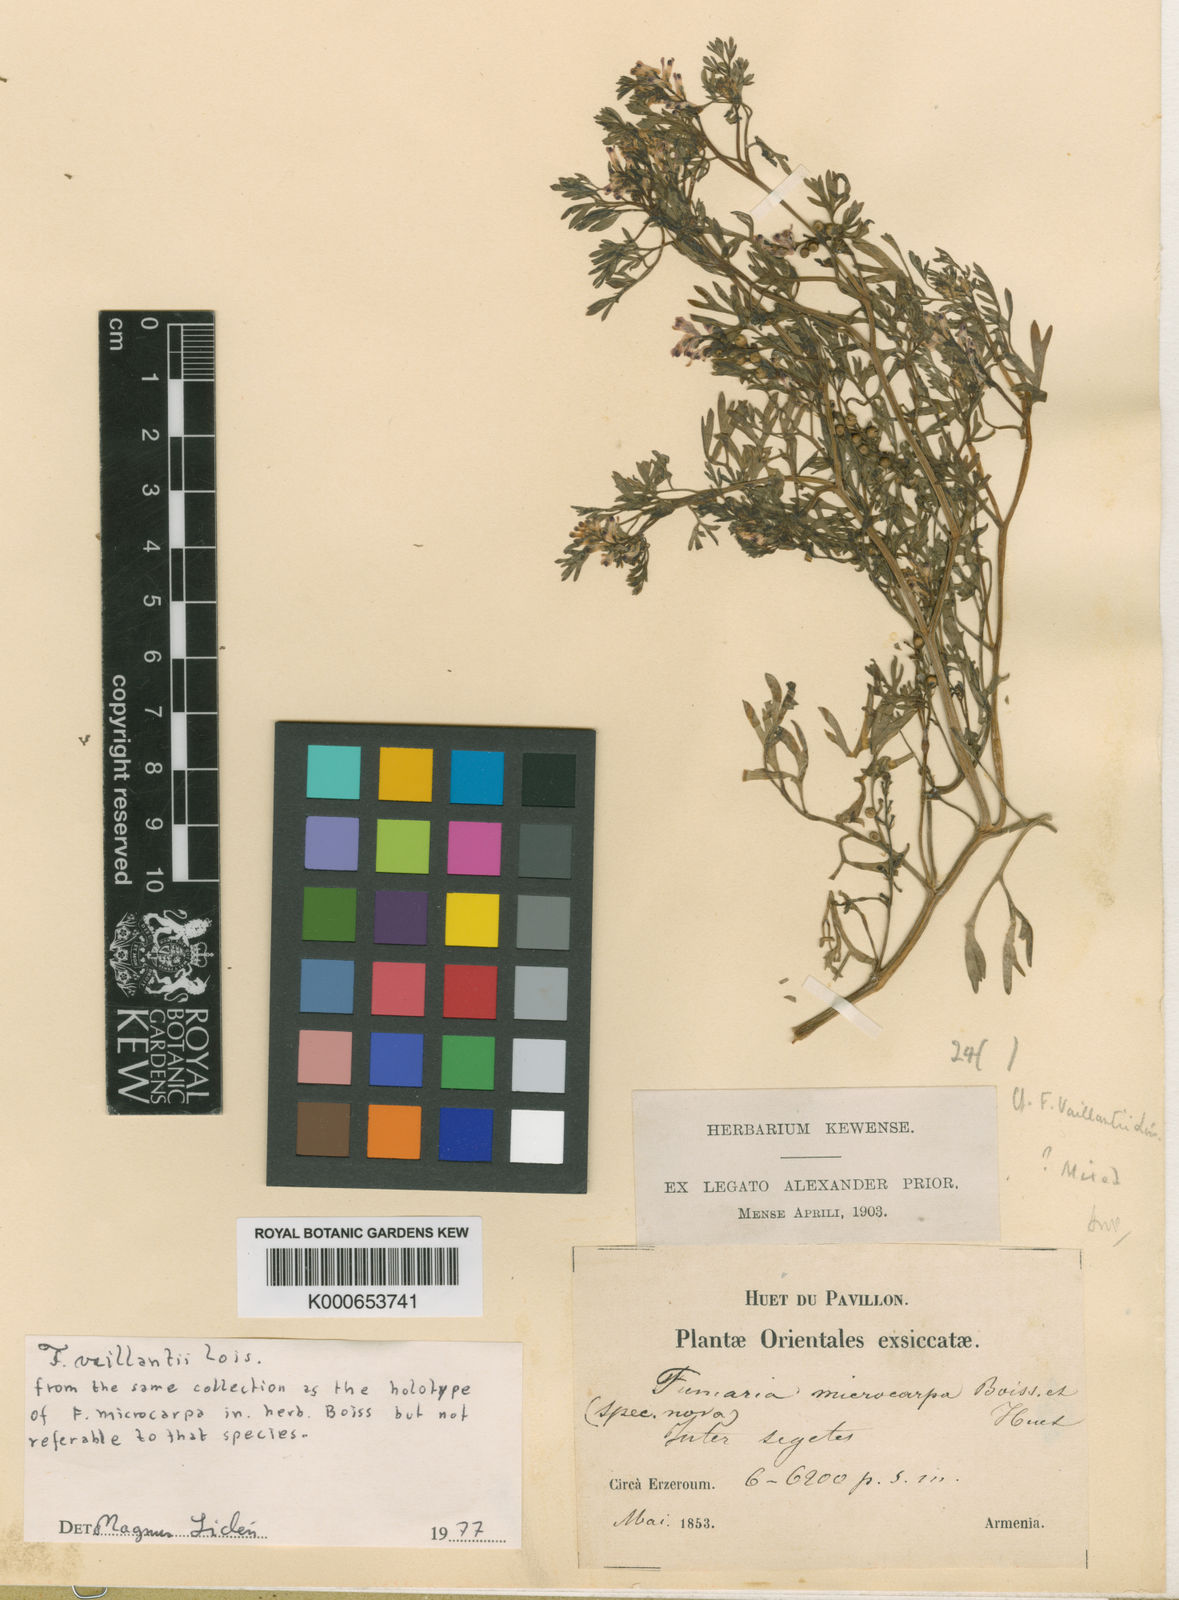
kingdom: Plantae
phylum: Tracheophyta
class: Magnoliopsida
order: Ranunculales
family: Papaveraceae
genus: Fumaria
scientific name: Fumaria schleicheri
